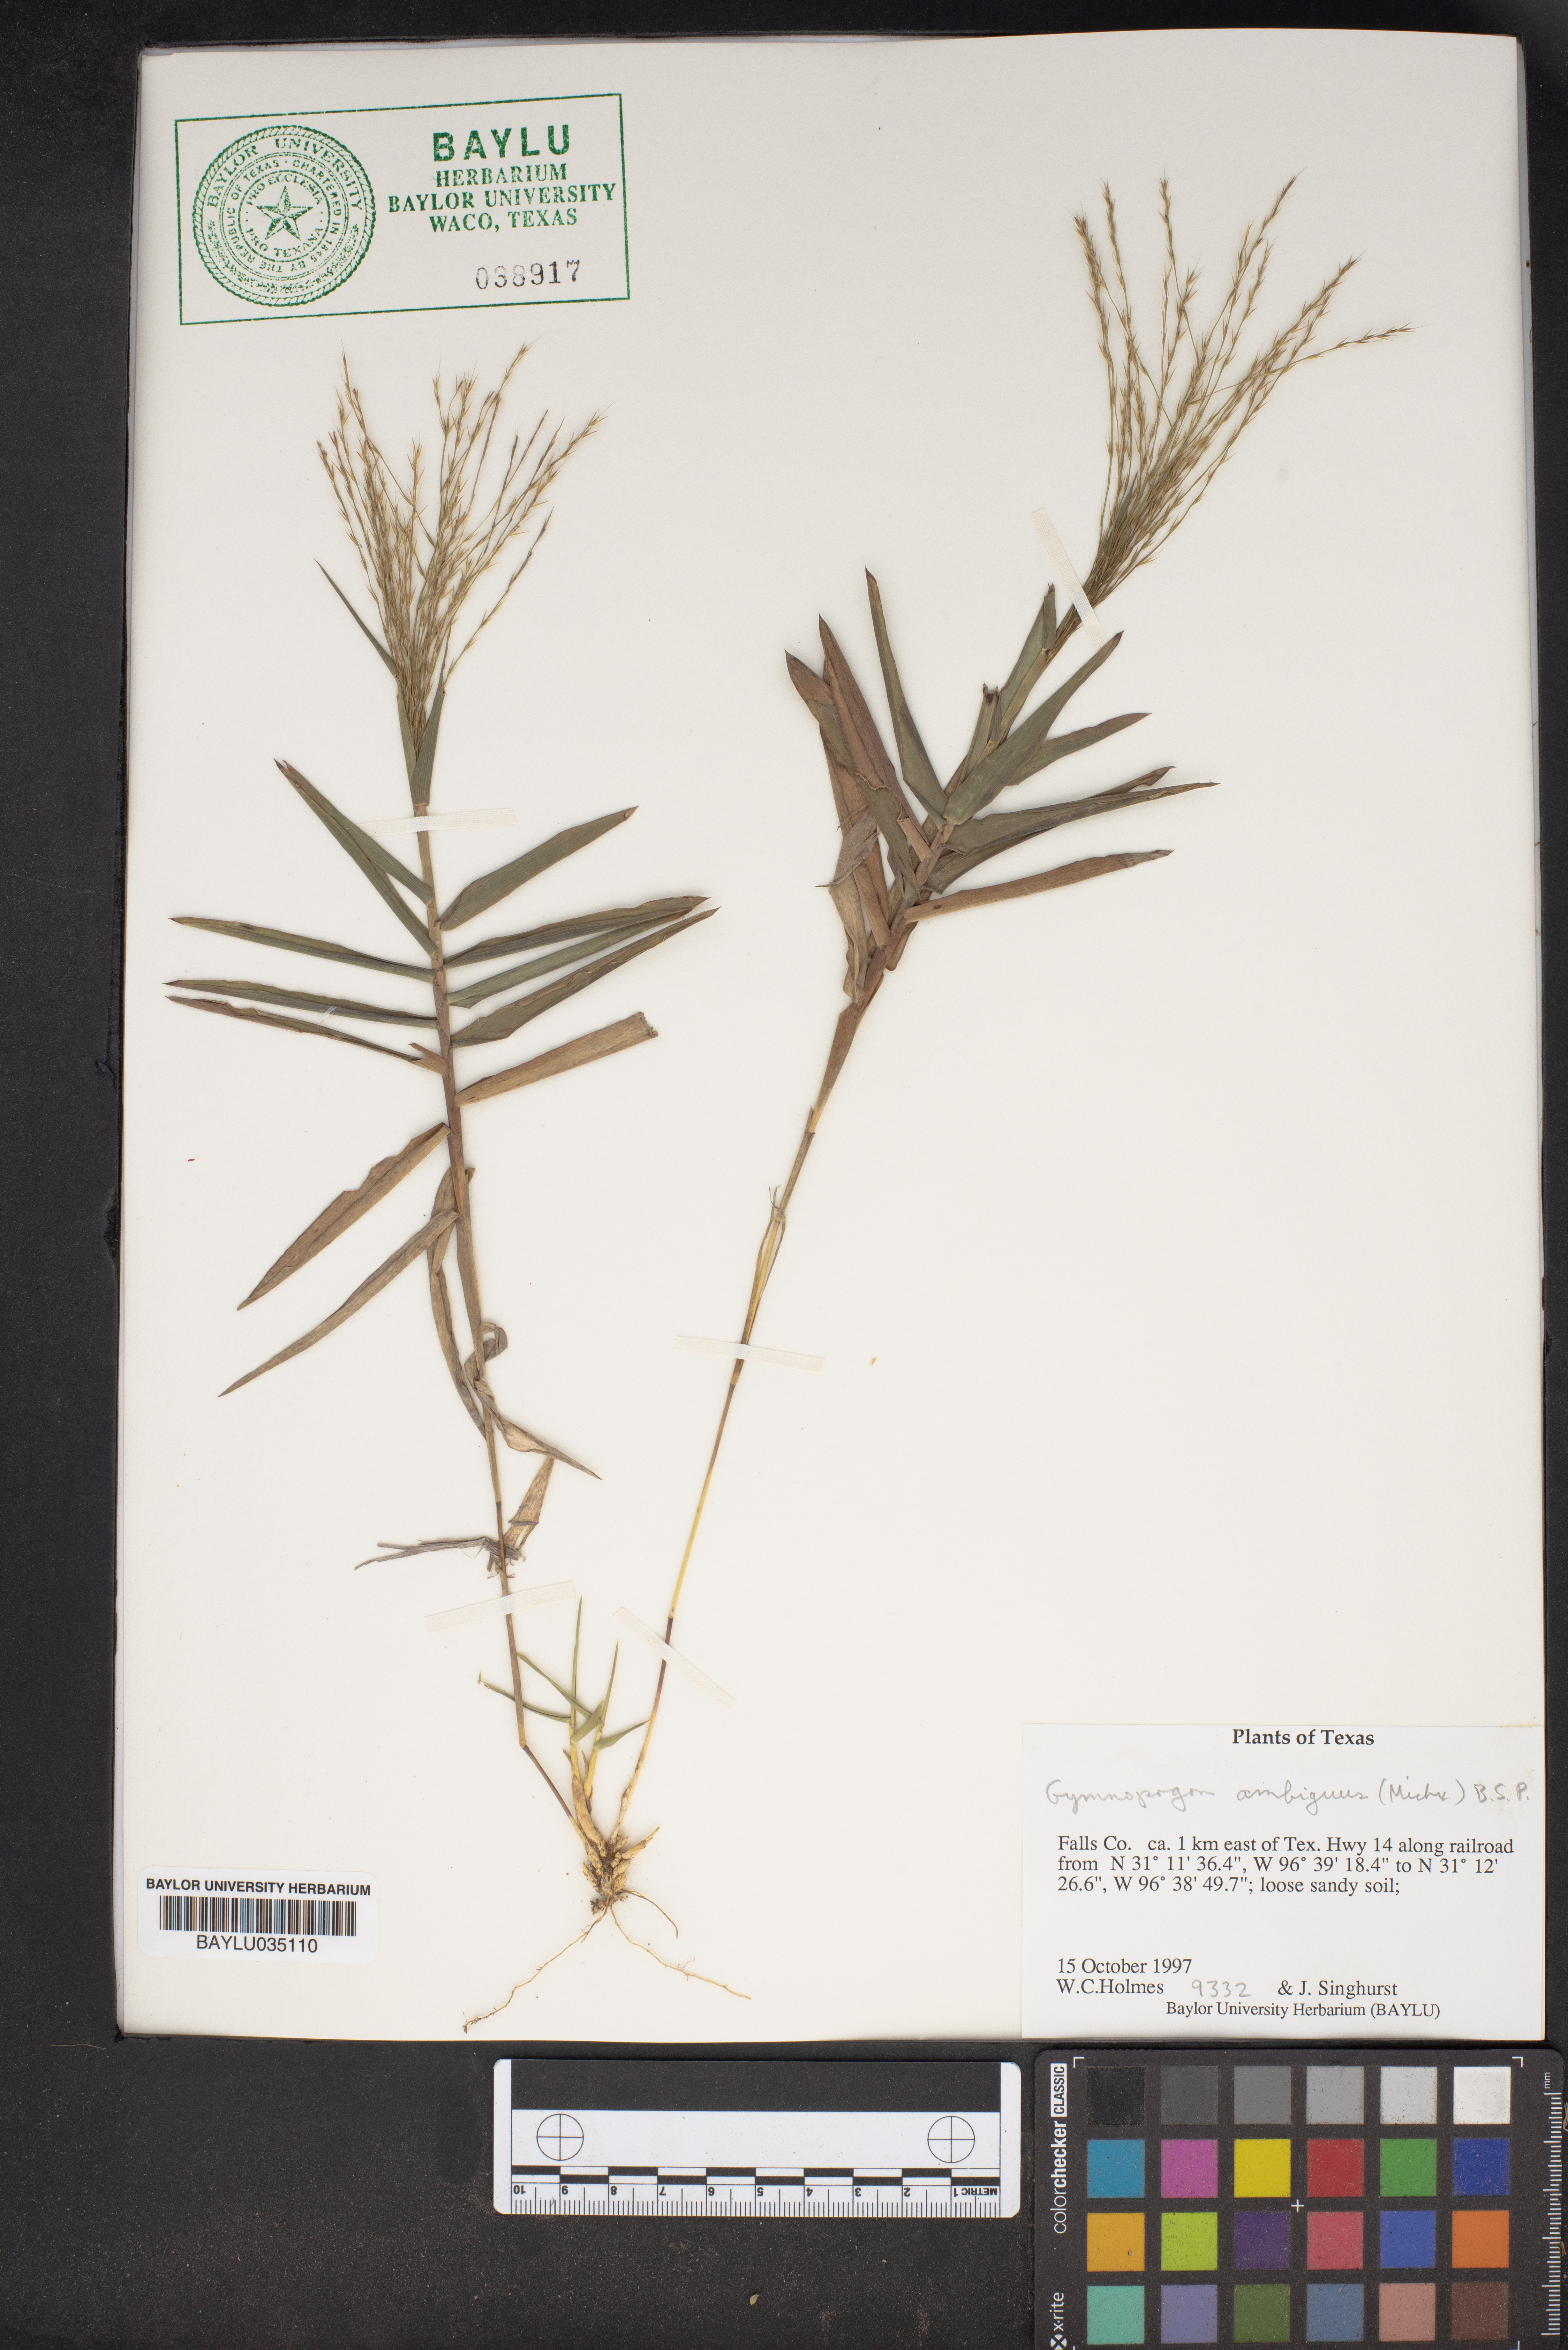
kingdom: Plantae
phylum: Tracheophyta
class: Liliopsida
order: Poales
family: Poaceae
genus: Gymnopogon
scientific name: Gymnopogon ambiguus
